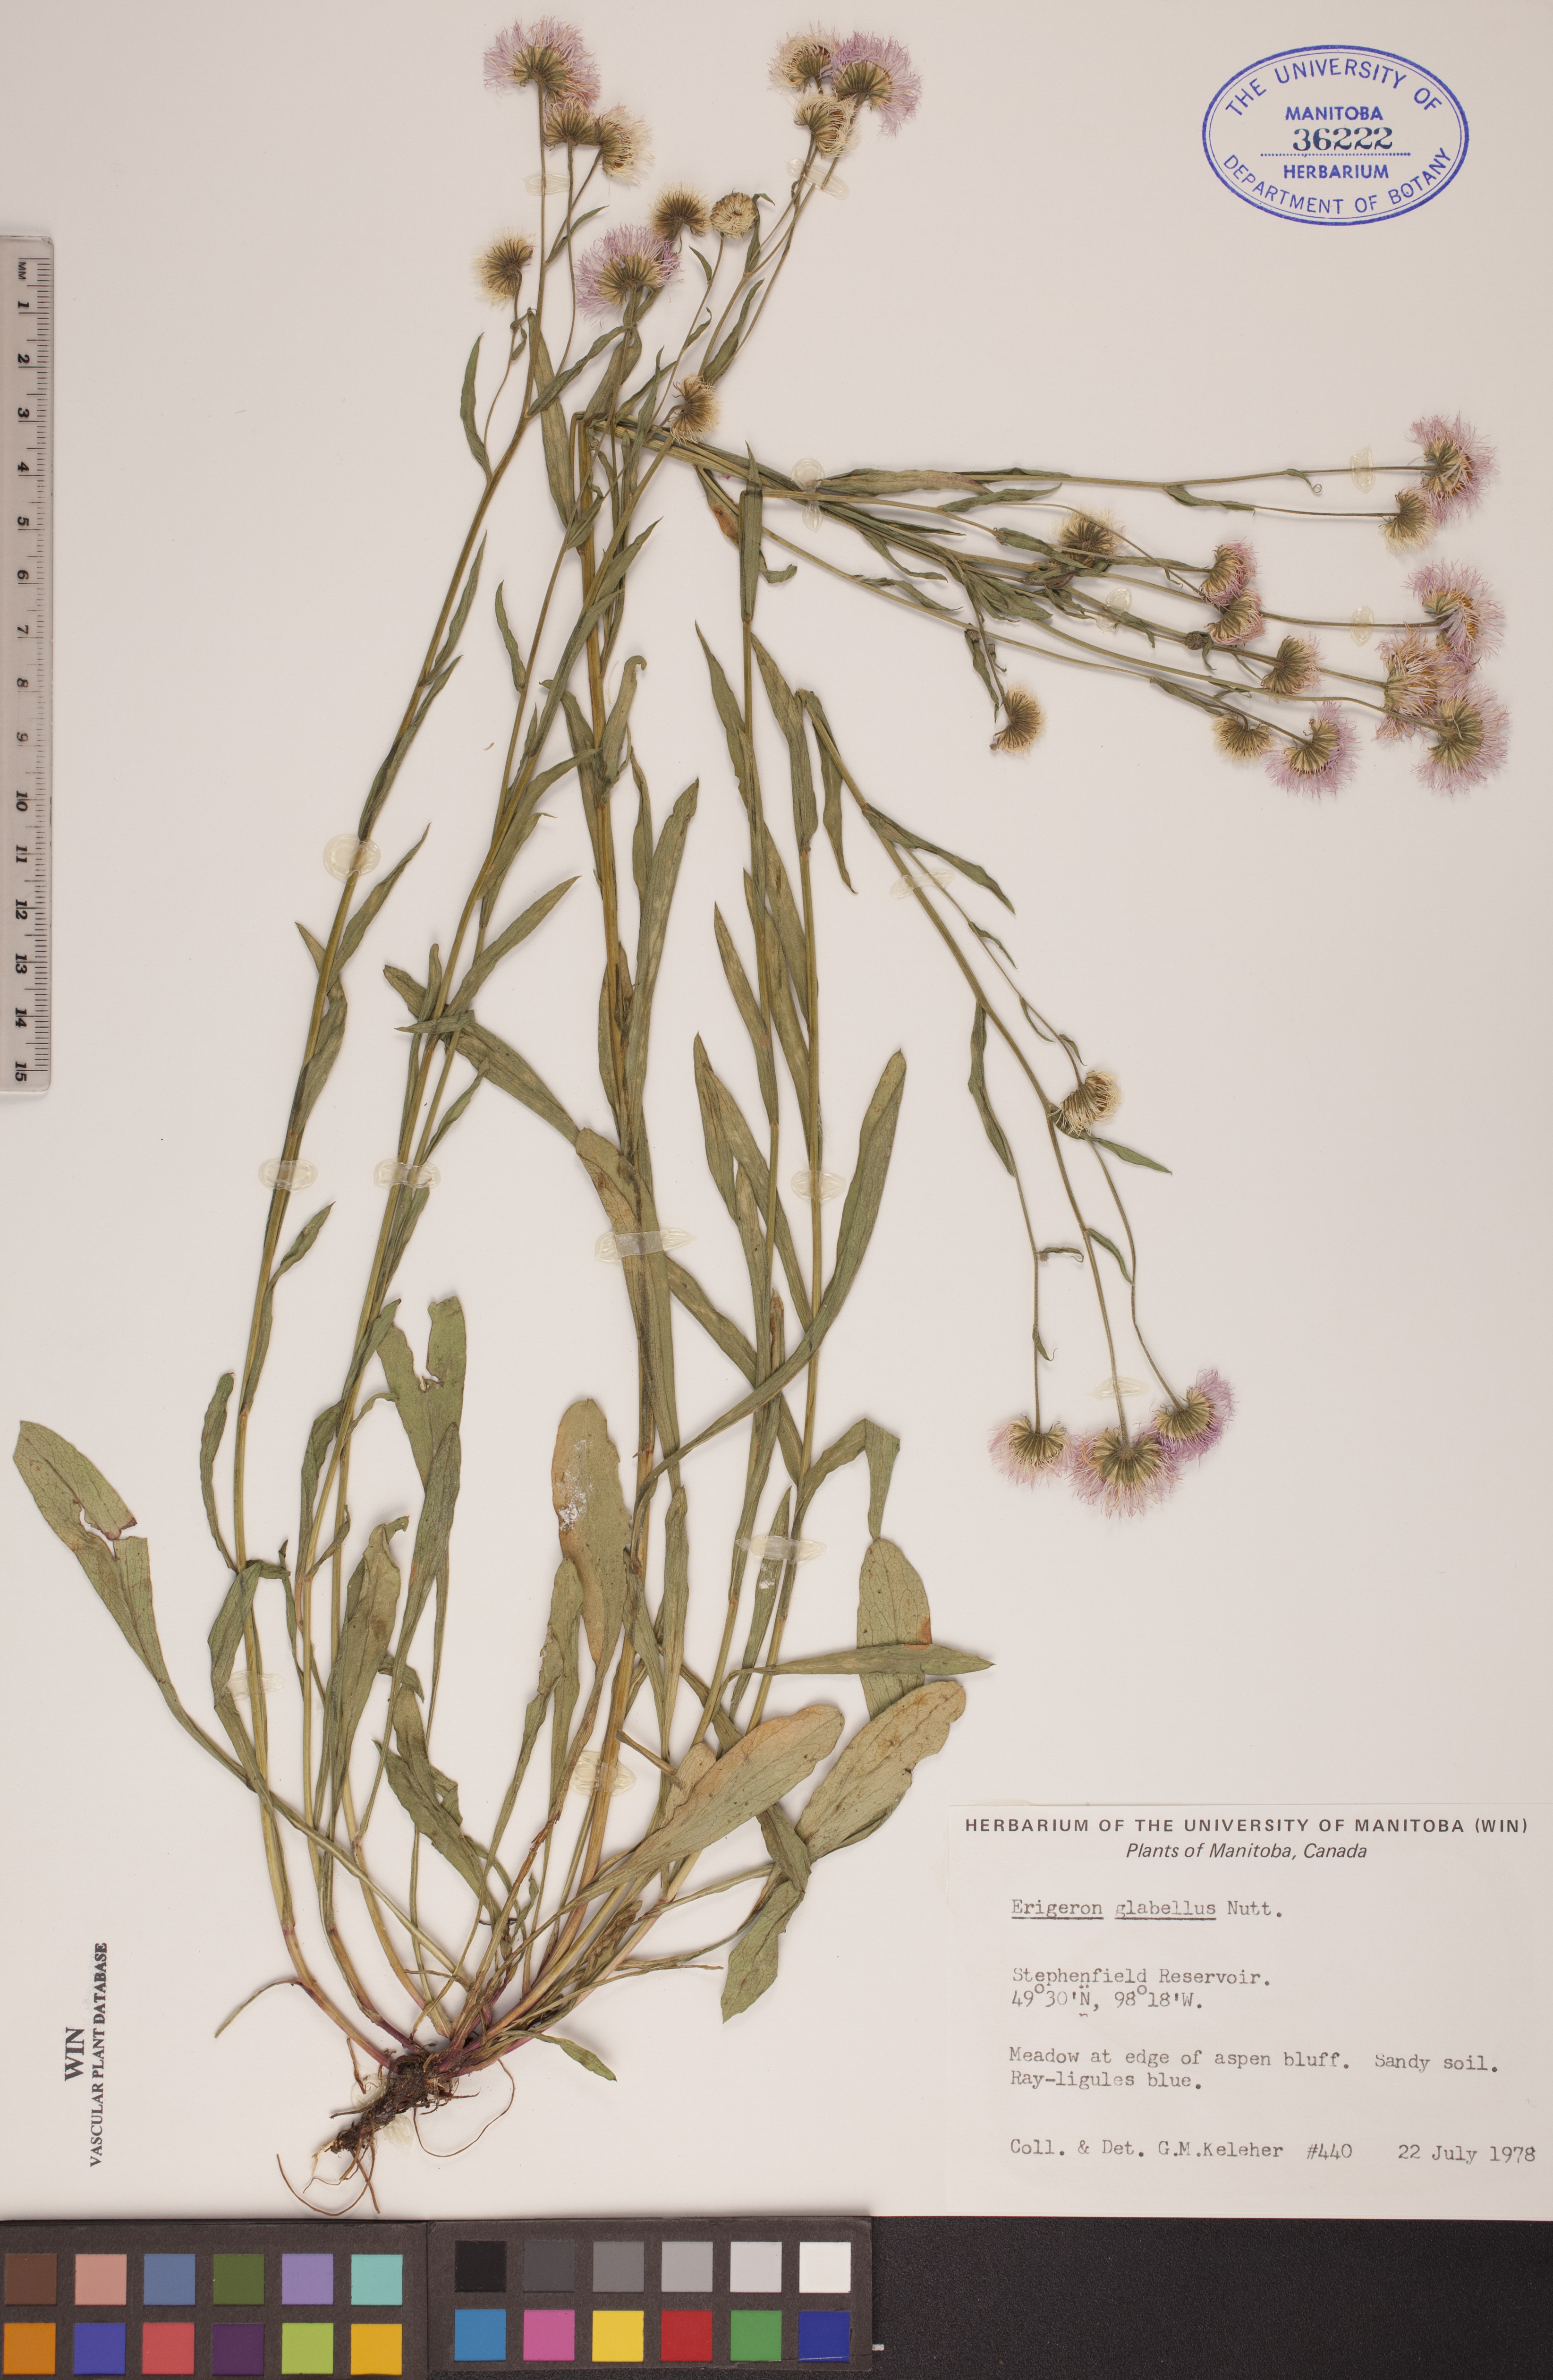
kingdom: Plantae
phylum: Tracheophyta
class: Magnoliopsida
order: Asterales
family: Asteraceae
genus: Erigeron
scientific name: Erigeron glabellus
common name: Smooth fleabane
